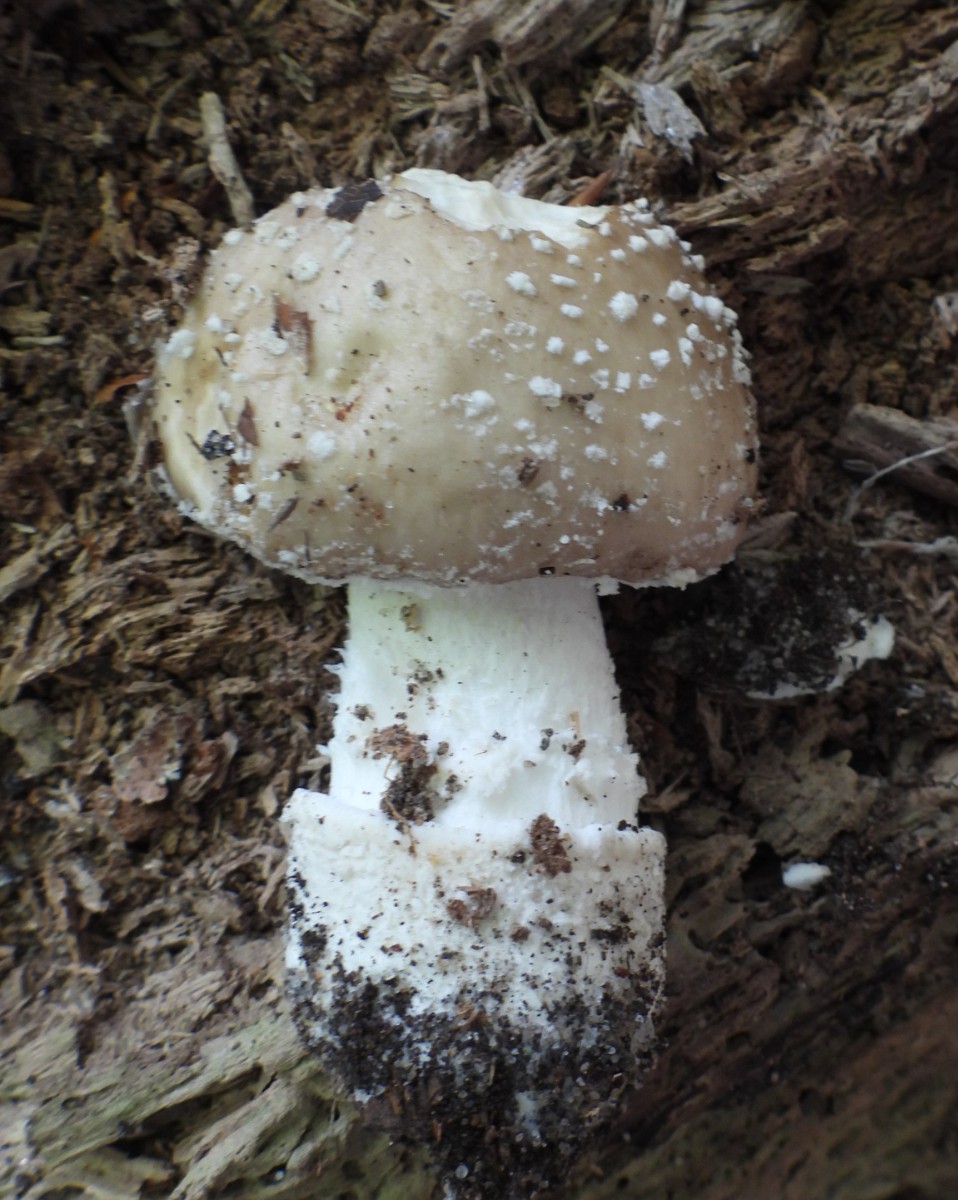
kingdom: Fungi
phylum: Basidiomycota
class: Agaricomycetes
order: Agaricales
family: Amanitaceae
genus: Amanita
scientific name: Amanita pantherina
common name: panter-fluesvamp
